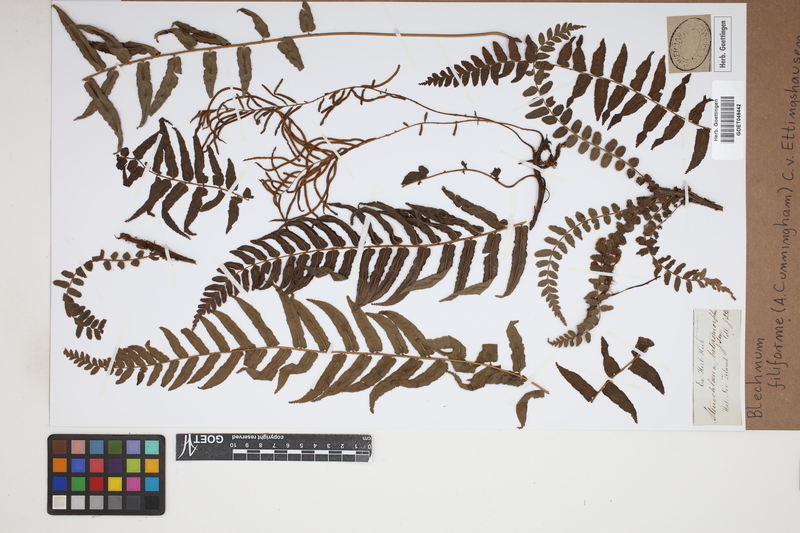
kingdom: Plantae
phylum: Tracheophyta
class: Polypodiopsida
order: Polypodiales
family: Blechnaceae
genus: Icarus
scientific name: Icarus filiformis
